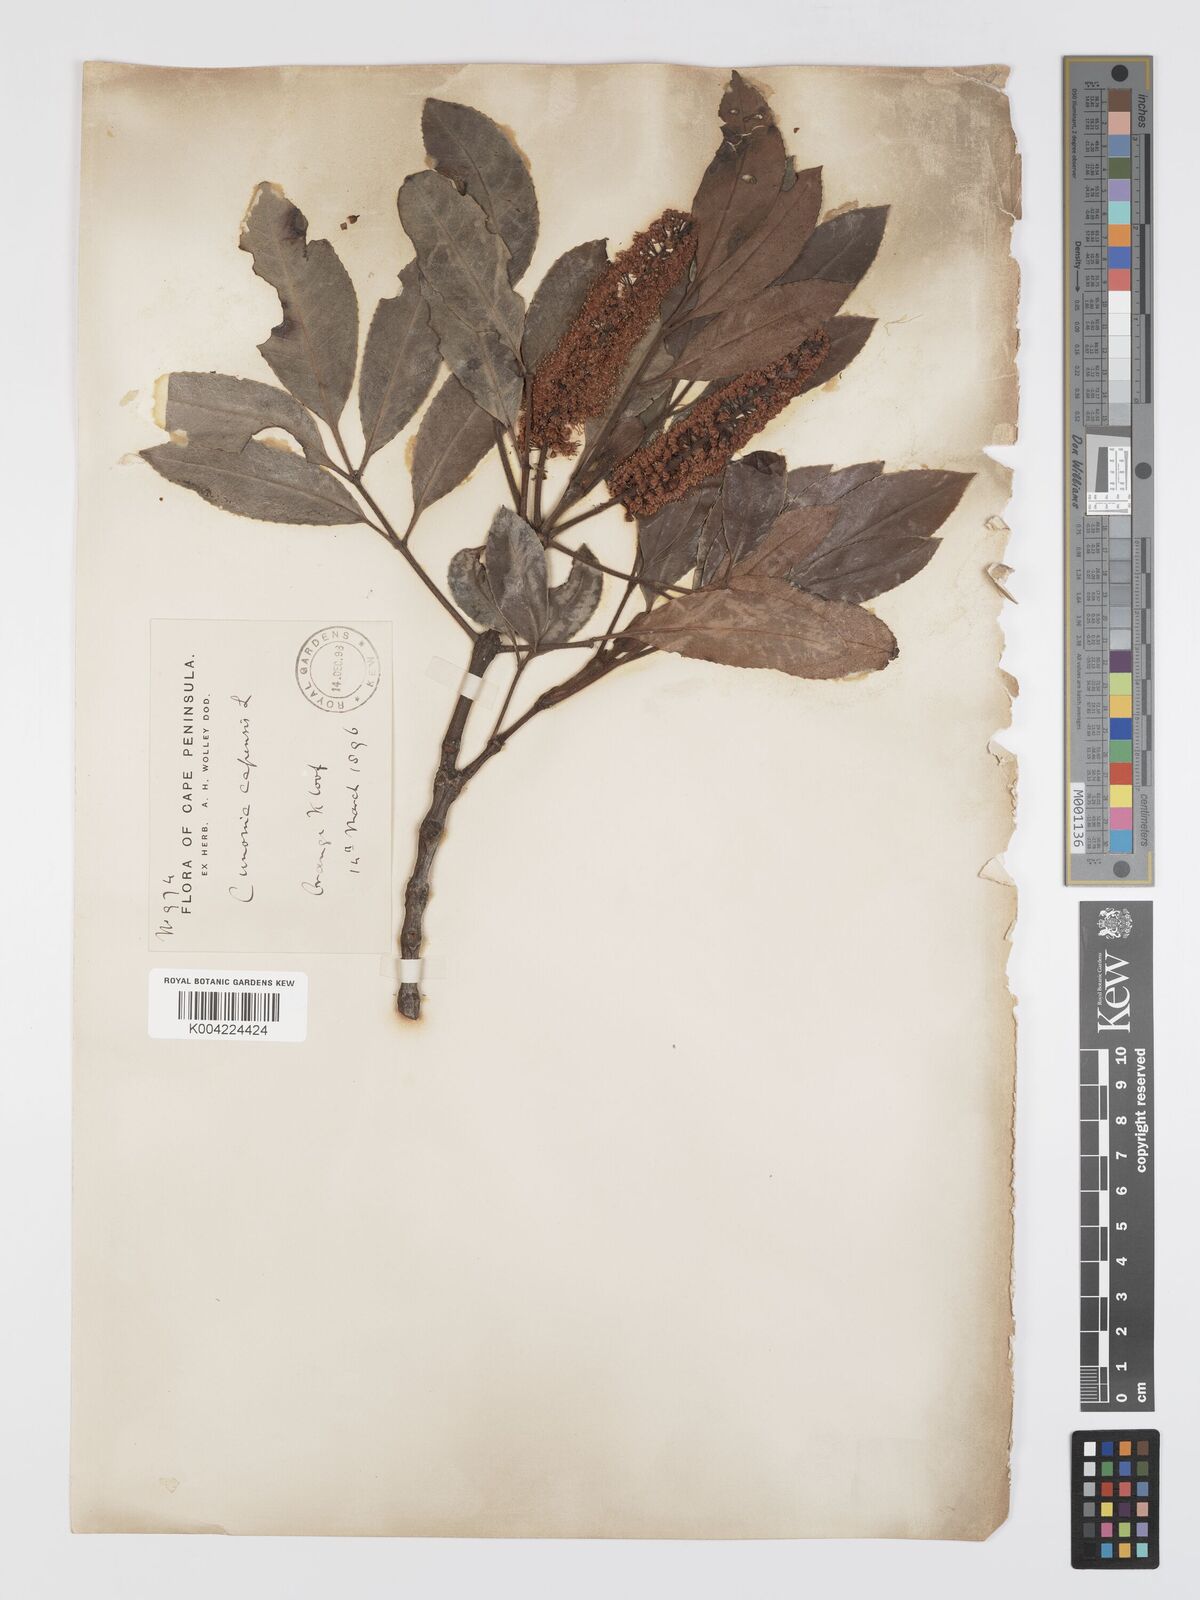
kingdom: Plantae
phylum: Tracheophyta
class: Magnoliopsida
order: Oxalidales
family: Cunoniaceae
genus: Cunonia
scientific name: Cunonia capensis
